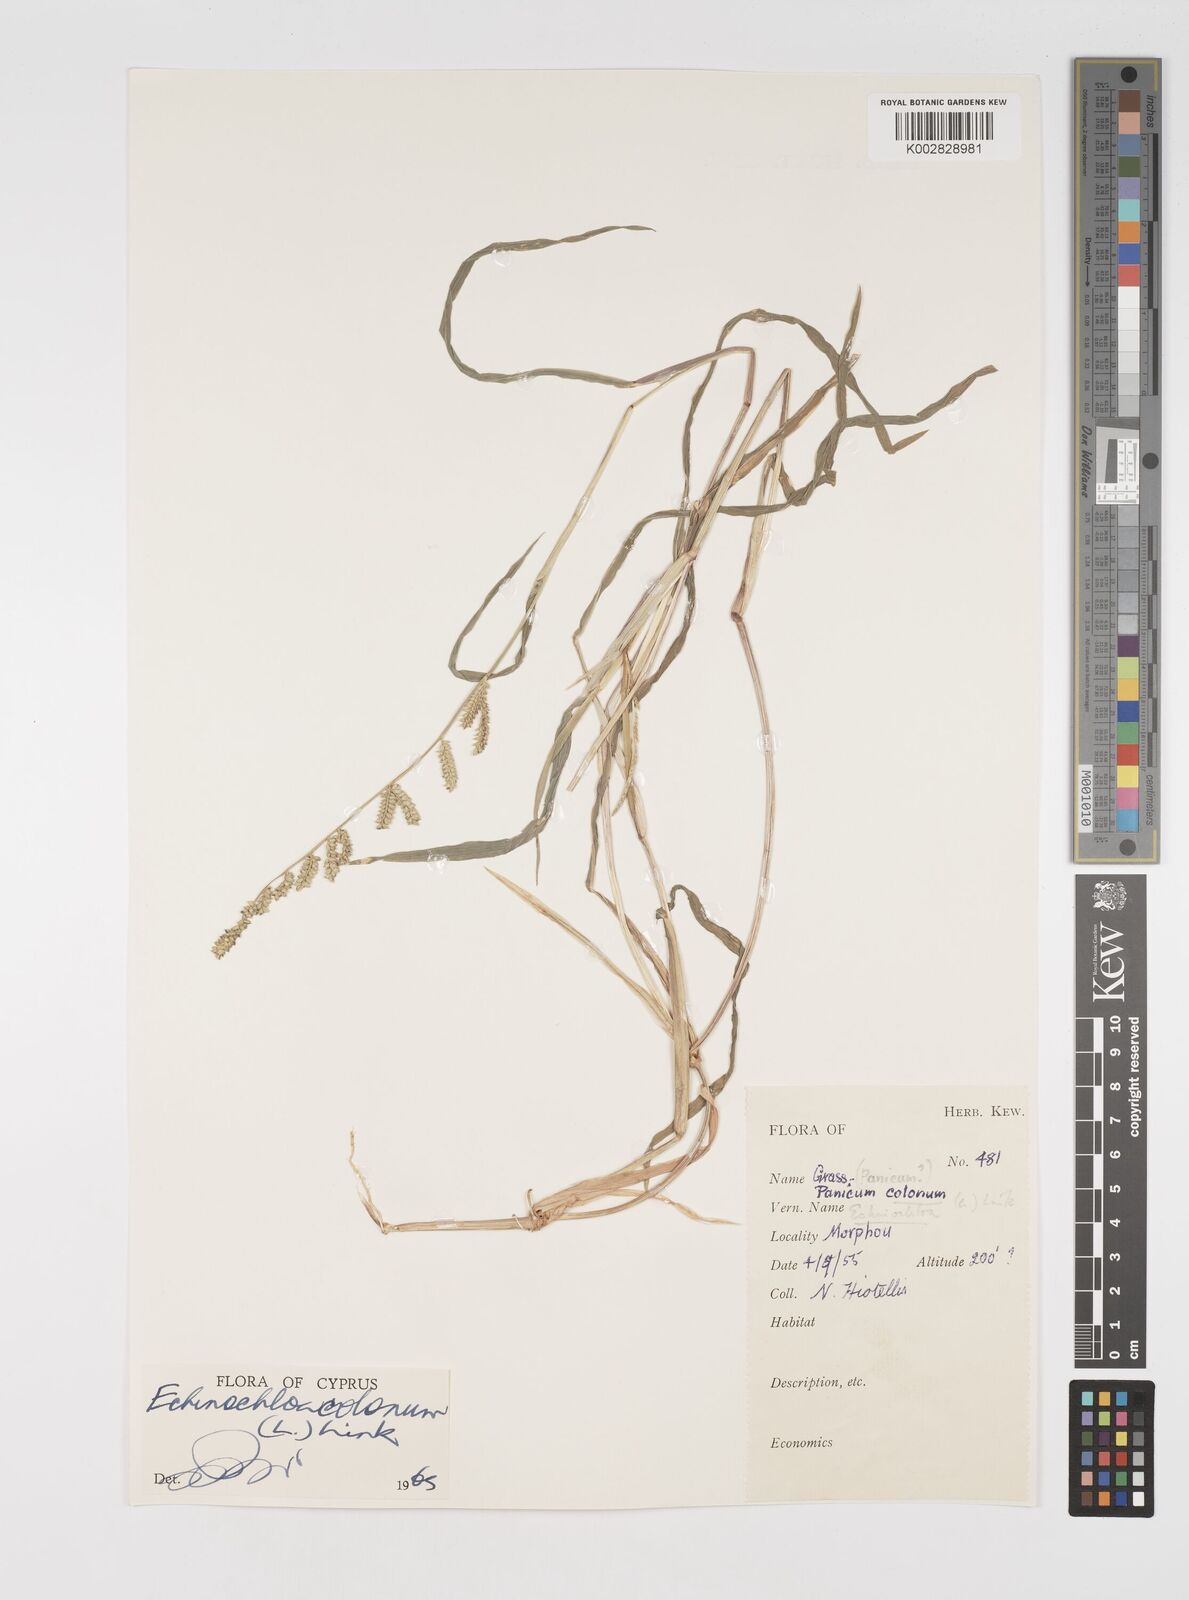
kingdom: Plantae
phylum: Tracheophyta
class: Liliopsida
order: Poales
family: Poaceae
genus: Echinochloa
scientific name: Echinochloa colonum
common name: Jungle rice
